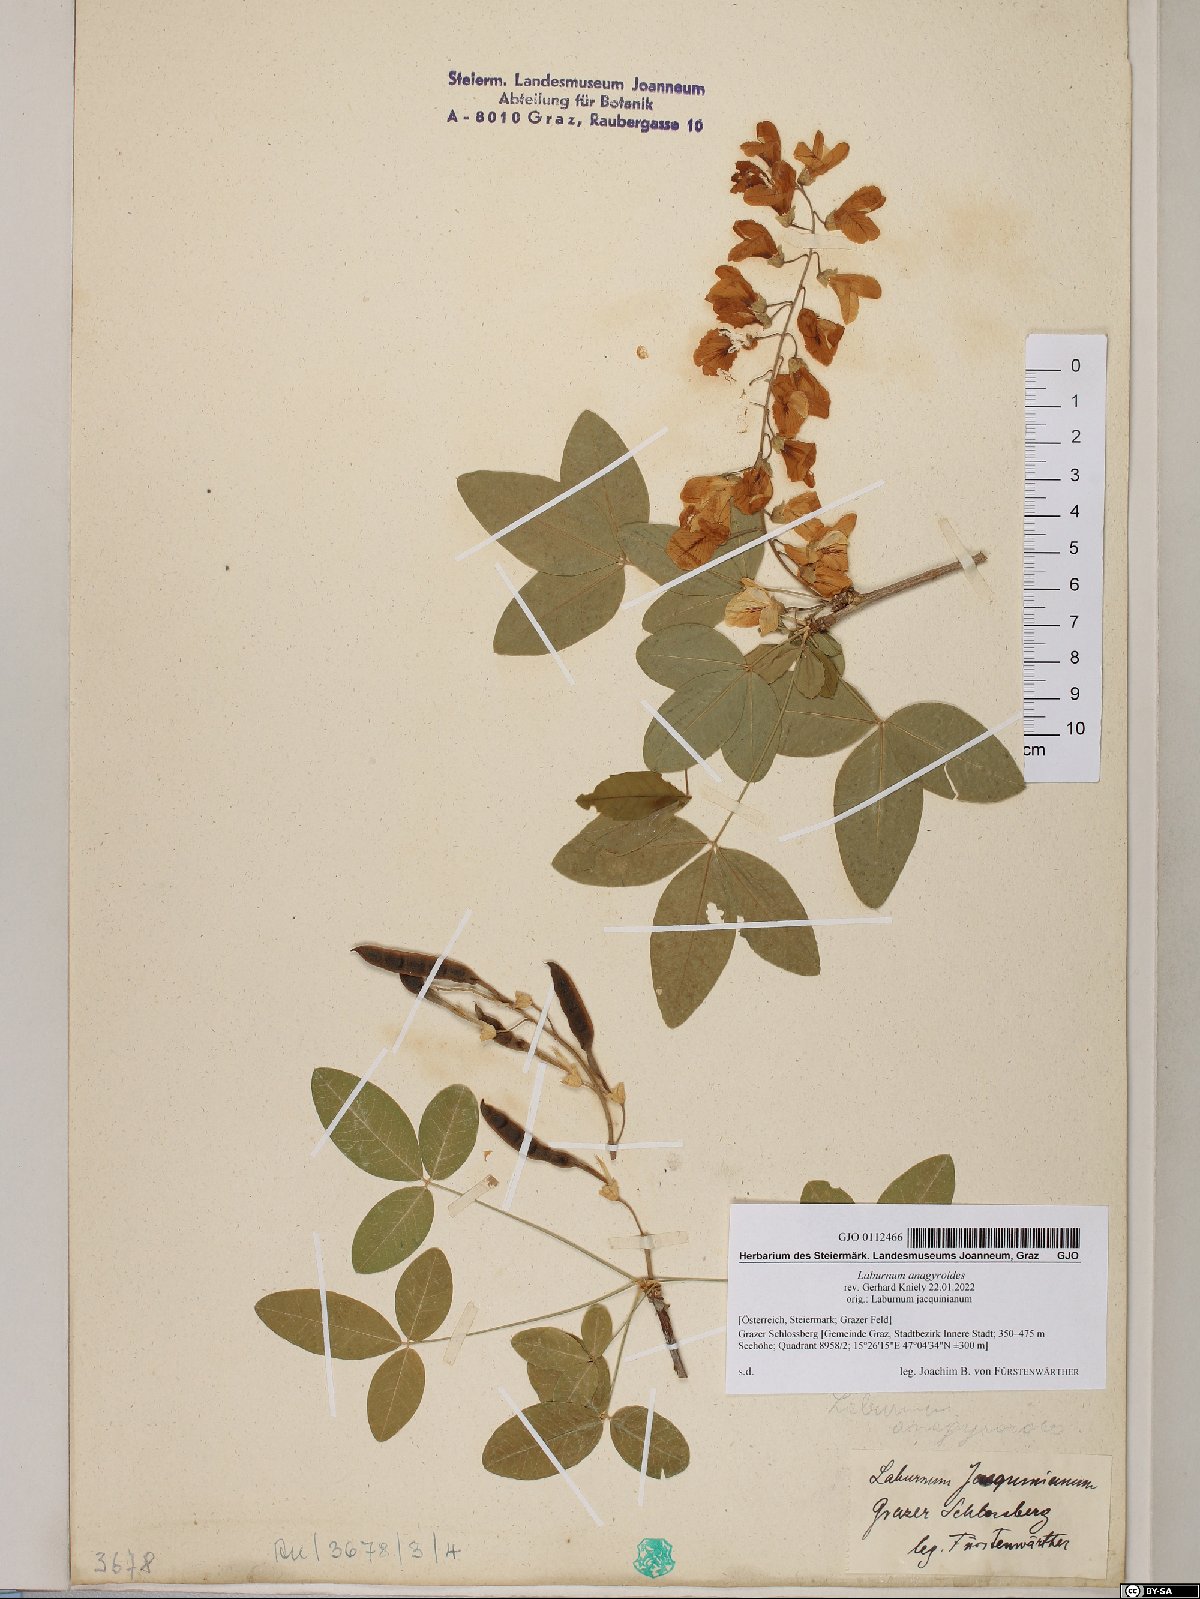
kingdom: Plantae
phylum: Tracheophyta
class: Magnoliopsida
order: Fabales
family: Fabaceae
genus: Laburnum
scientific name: Laburnum anagyroides
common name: Laburnum
